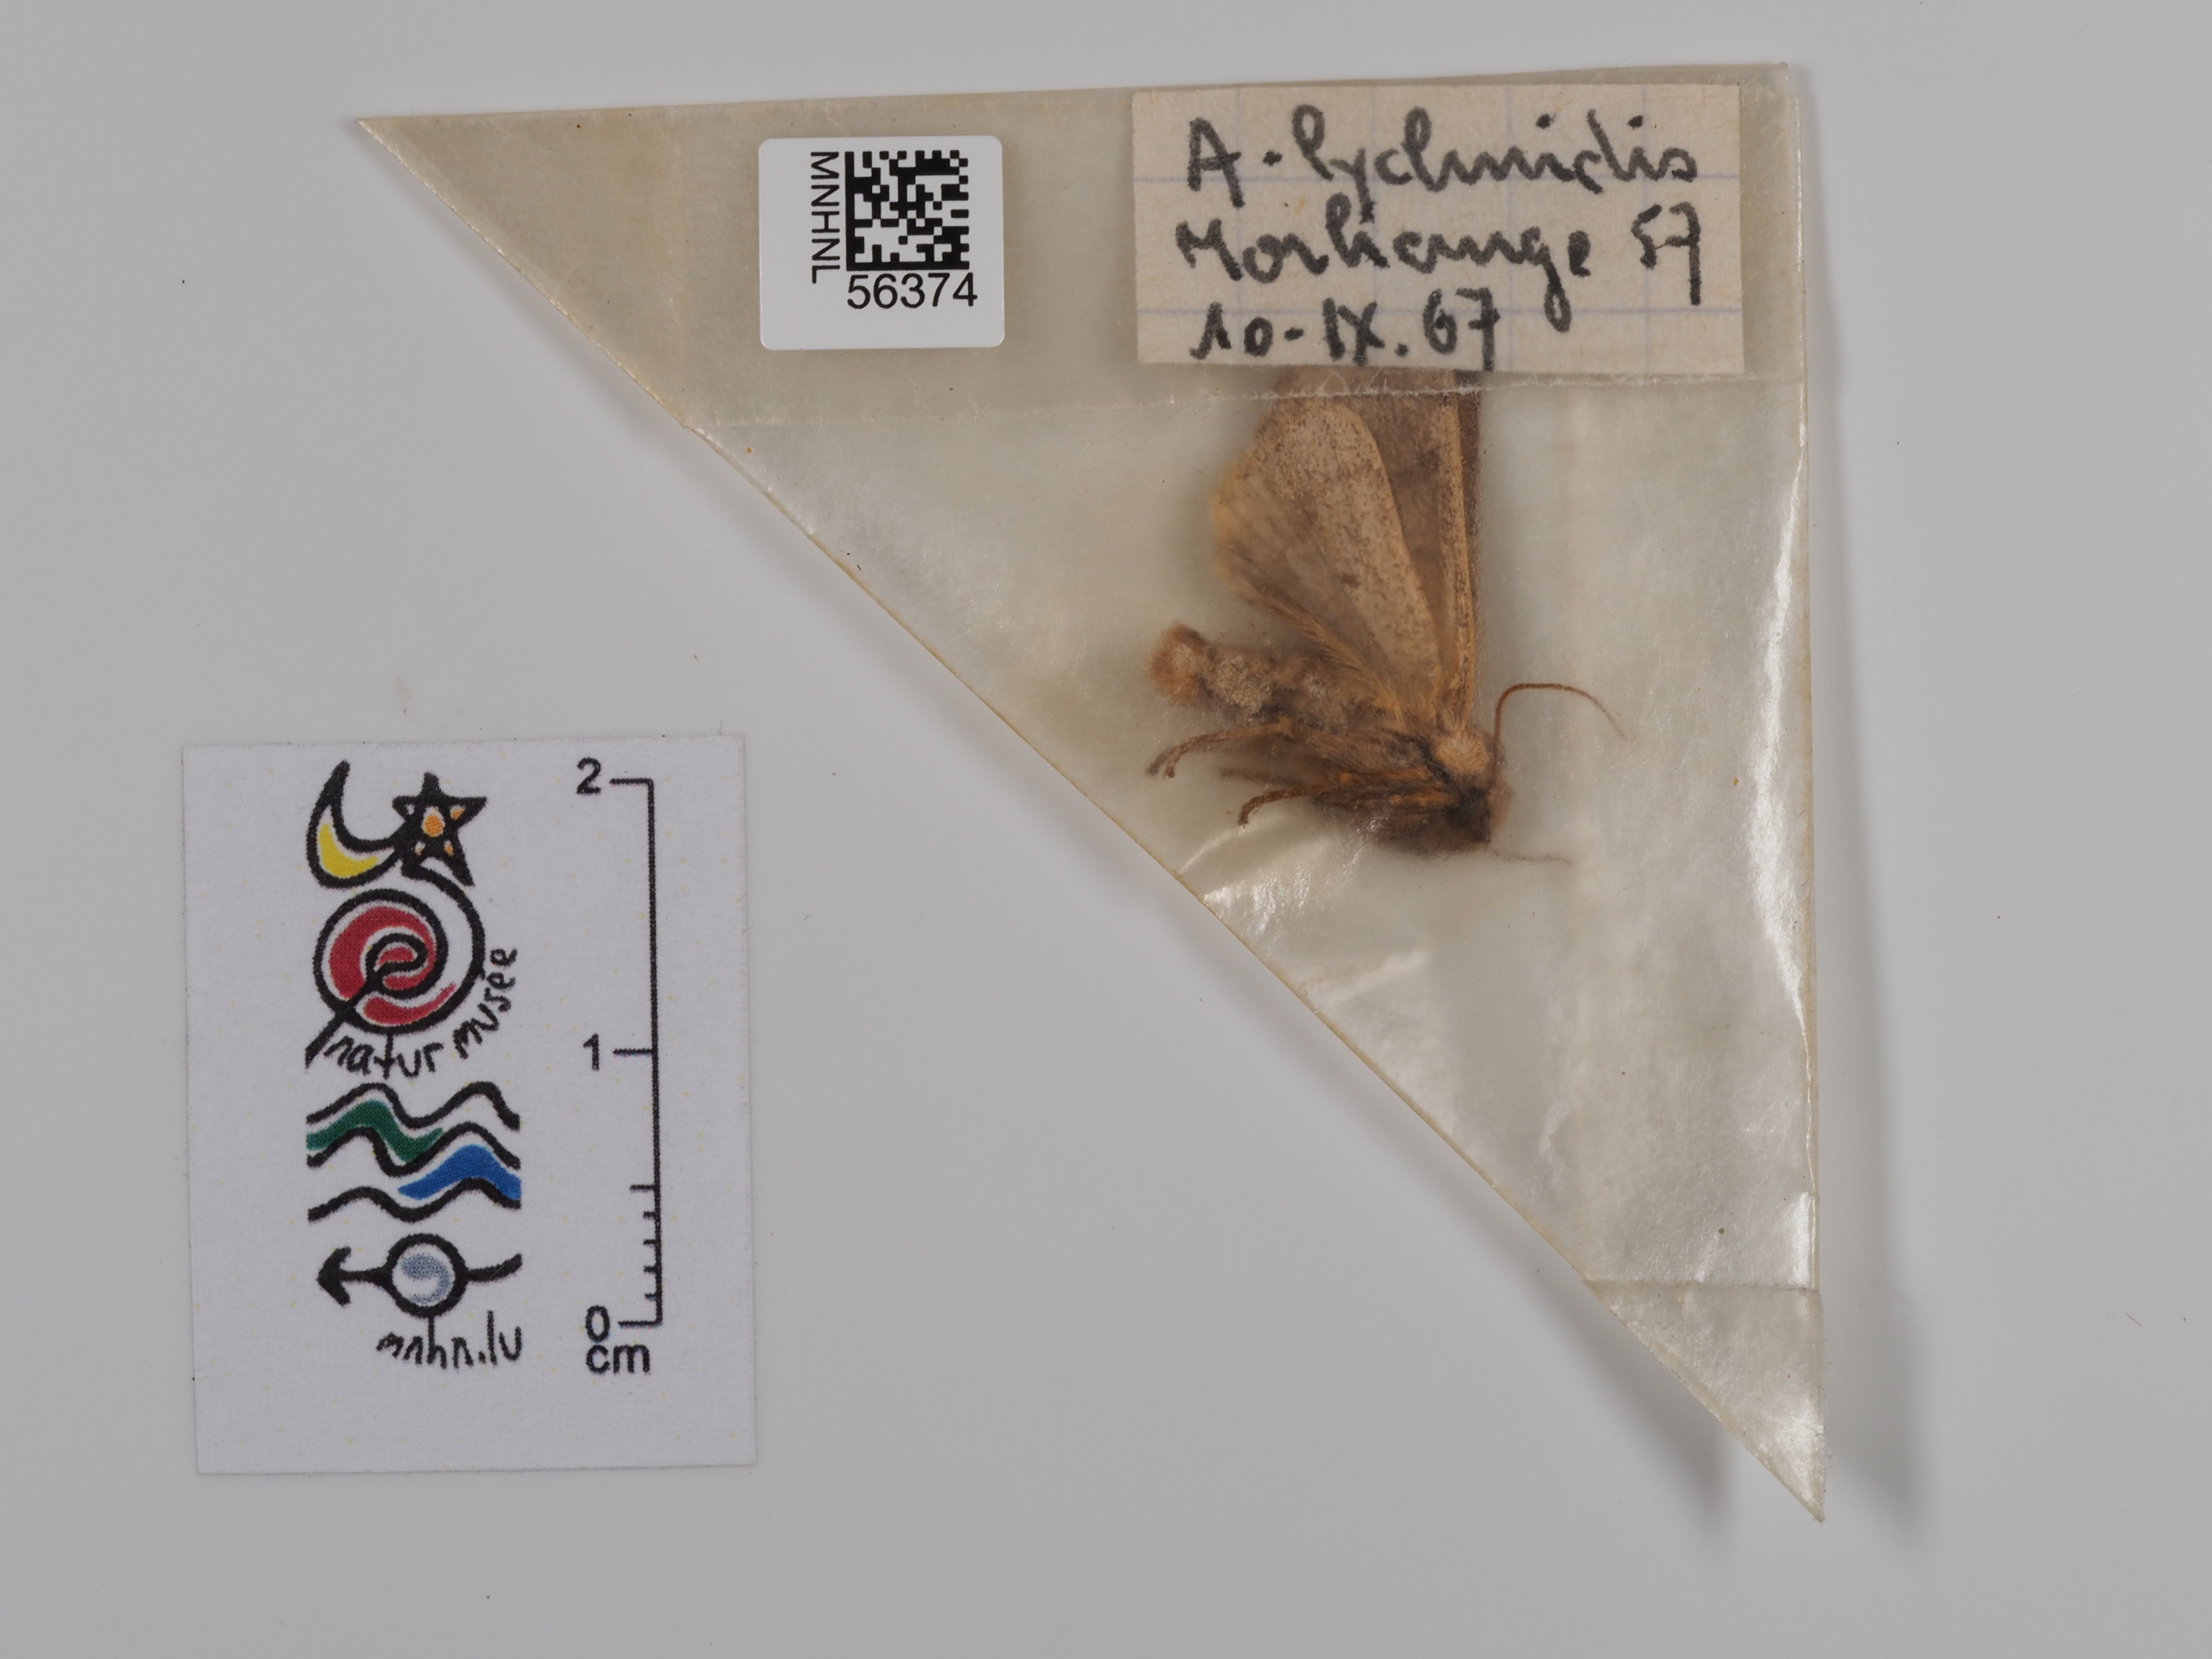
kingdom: Animalia
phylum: Arthropoda
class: Insecta
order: Lepidoptera
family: Noctuidae
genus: Agrochola
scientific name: Agrochola lychnidis
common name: Beaded chestnut
